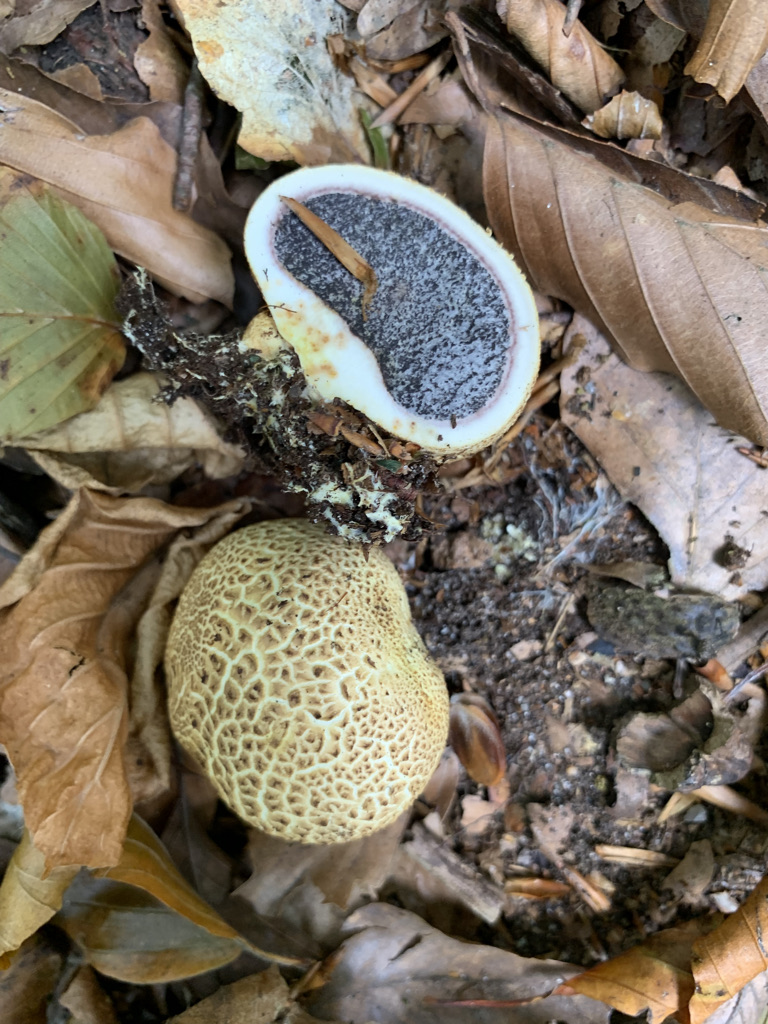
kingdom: Fungi
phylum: Basidiomycota
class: Agaricomycetes
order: Boletales
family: Sclerodermataceae
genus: Scleroderma
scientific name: Scleroderma citrinum
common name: almindelig bruskbold
